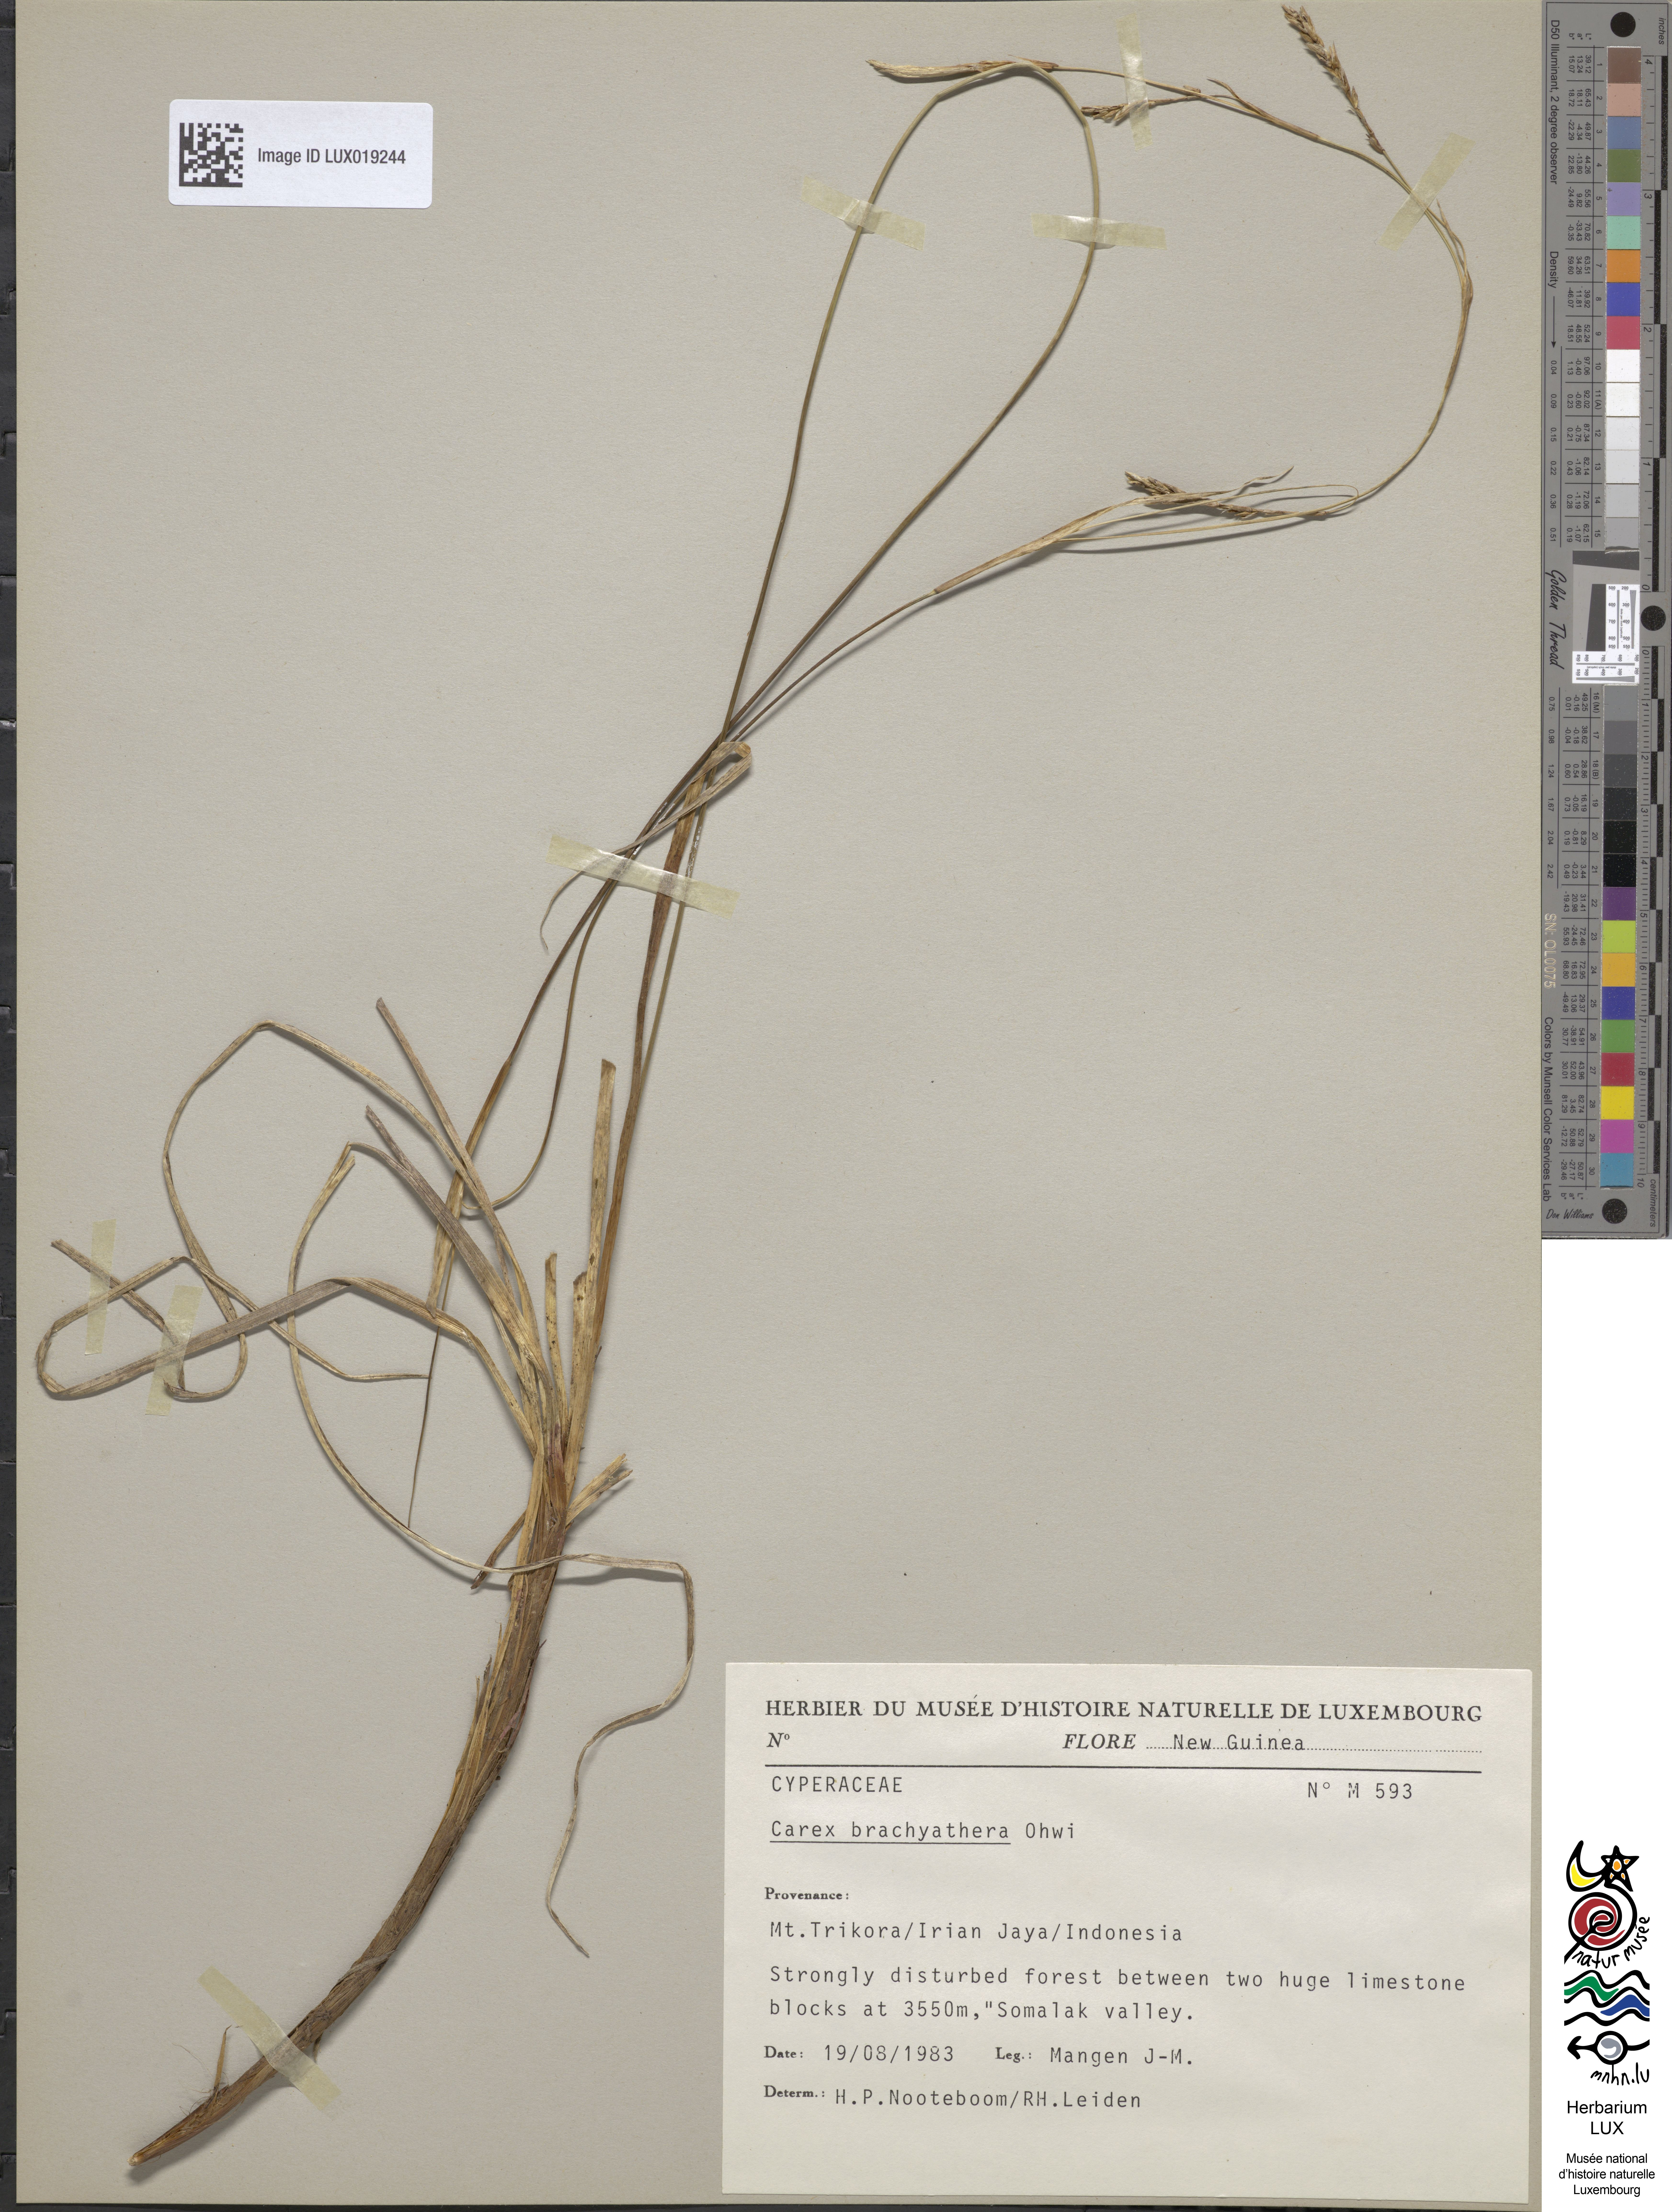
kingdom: Plantae
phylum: Tracheophyta
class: Liliopsida
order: Poales
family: Cyperaceae
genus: Carex
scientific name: Carex brachyanthera
